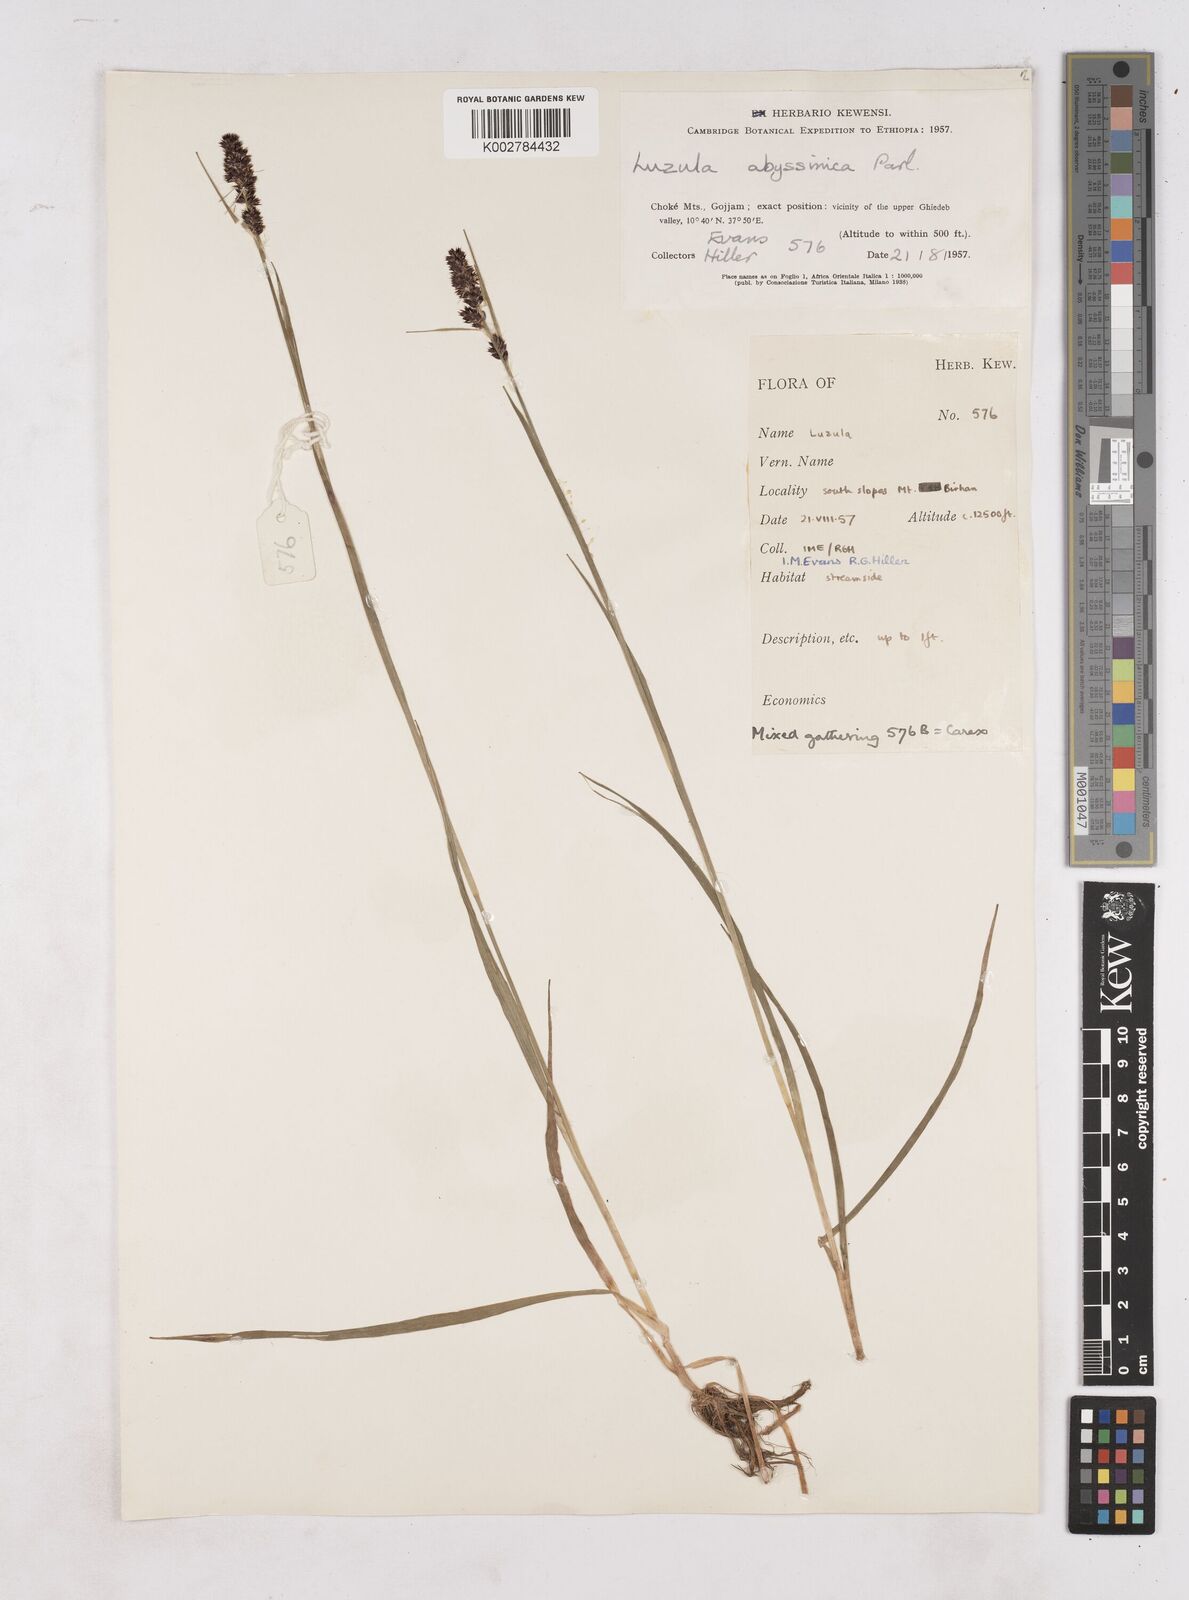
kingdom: Plantae
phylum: Tracheophyta
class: Liliopsida
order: Poales
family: Juncaceae
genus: Luzula
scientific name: Luzula abyssinica
